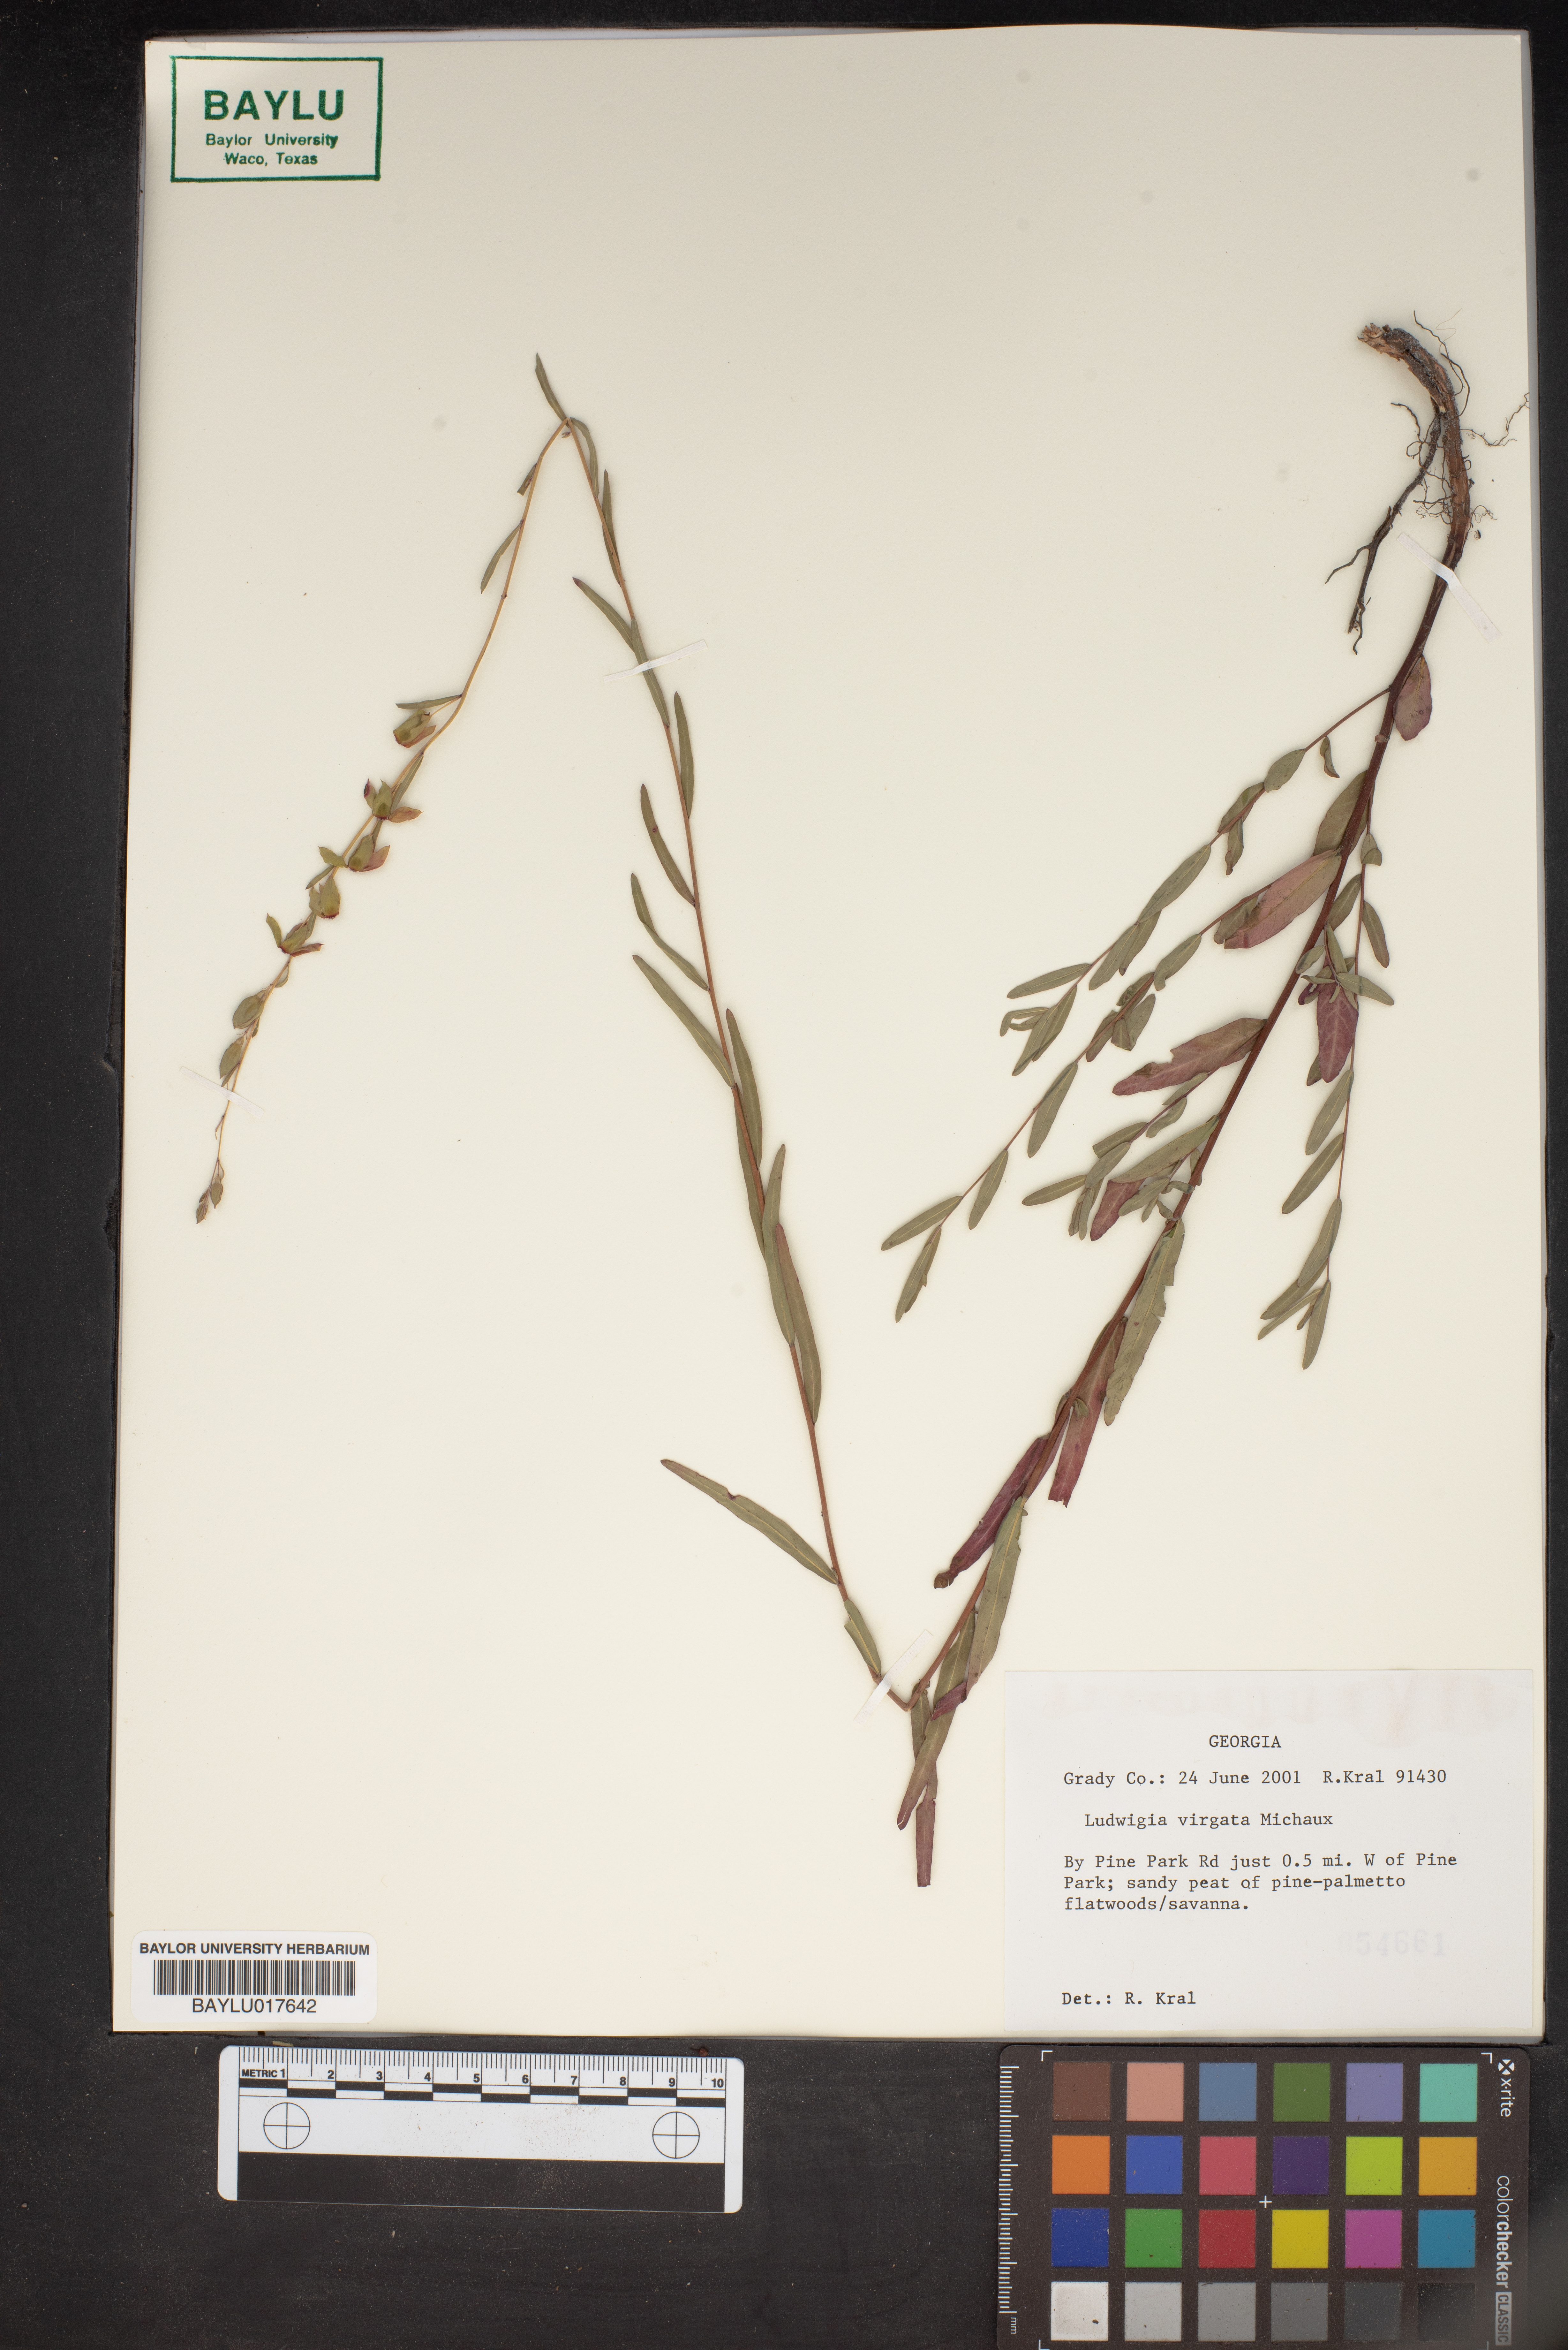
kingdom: Plantae
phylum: Tracheophyta
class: Magnoliopsida
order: Myrtales
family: Onagraceae
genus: Ludwigia
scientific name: Ludwigia virgata
